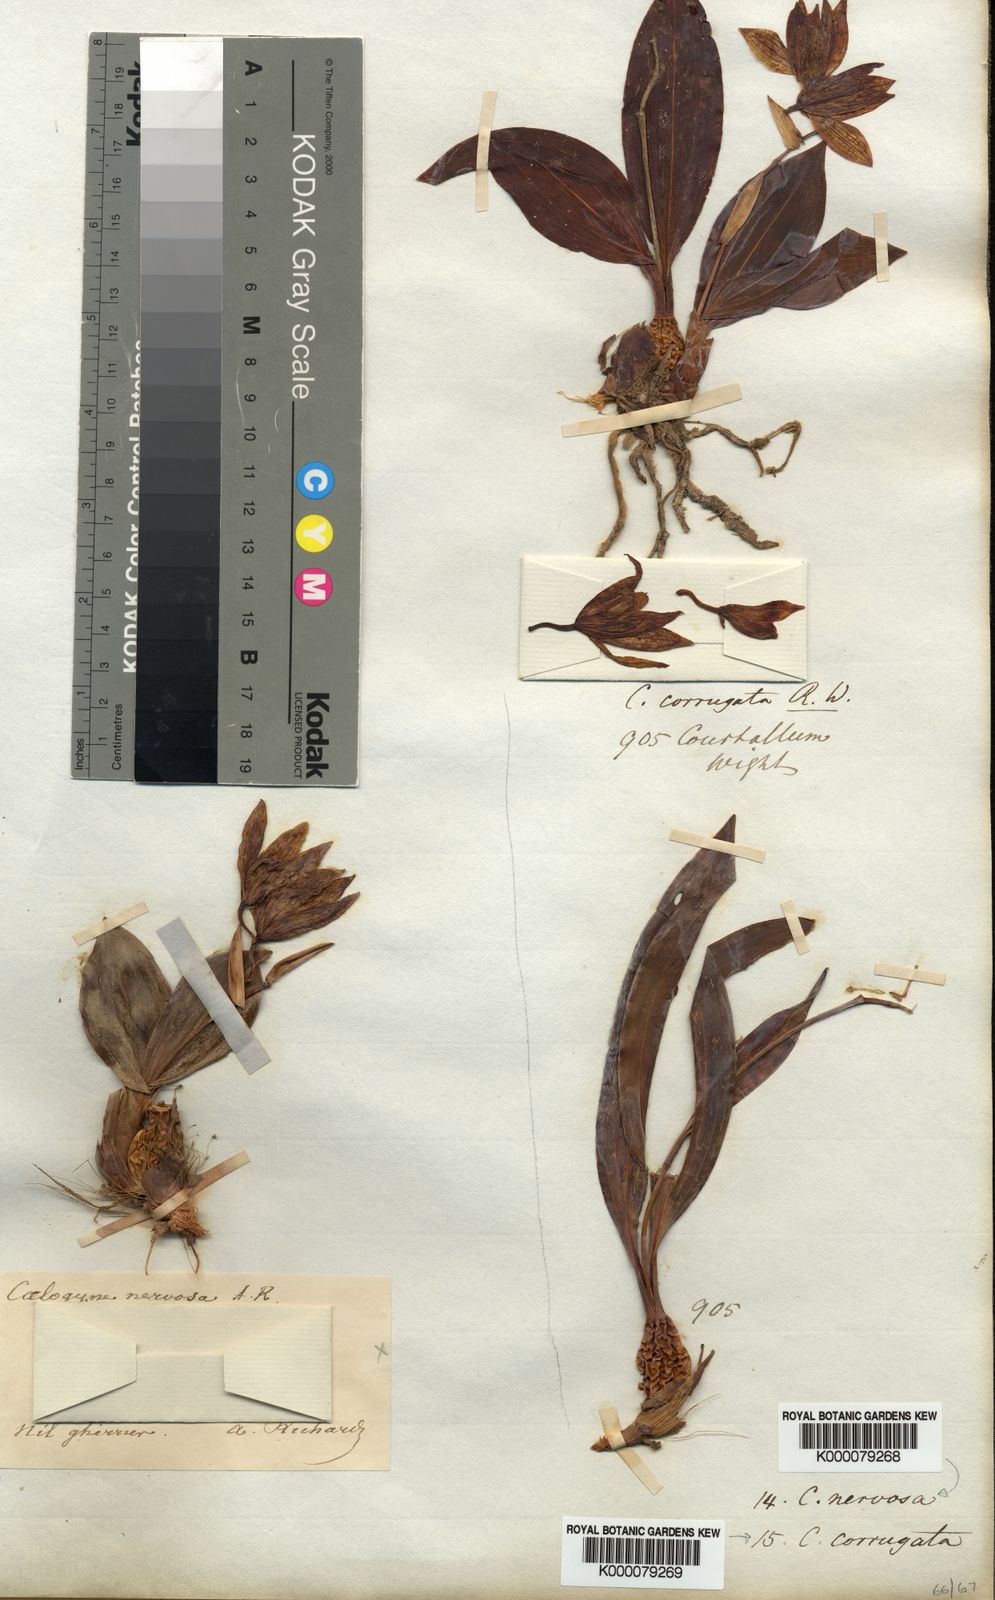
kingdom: Plantae
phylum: Tracheophyta
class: Liliopsida
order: Asparagales
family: Orchidaceae
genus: Coelogyne
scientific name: Coelogyne nervosa
